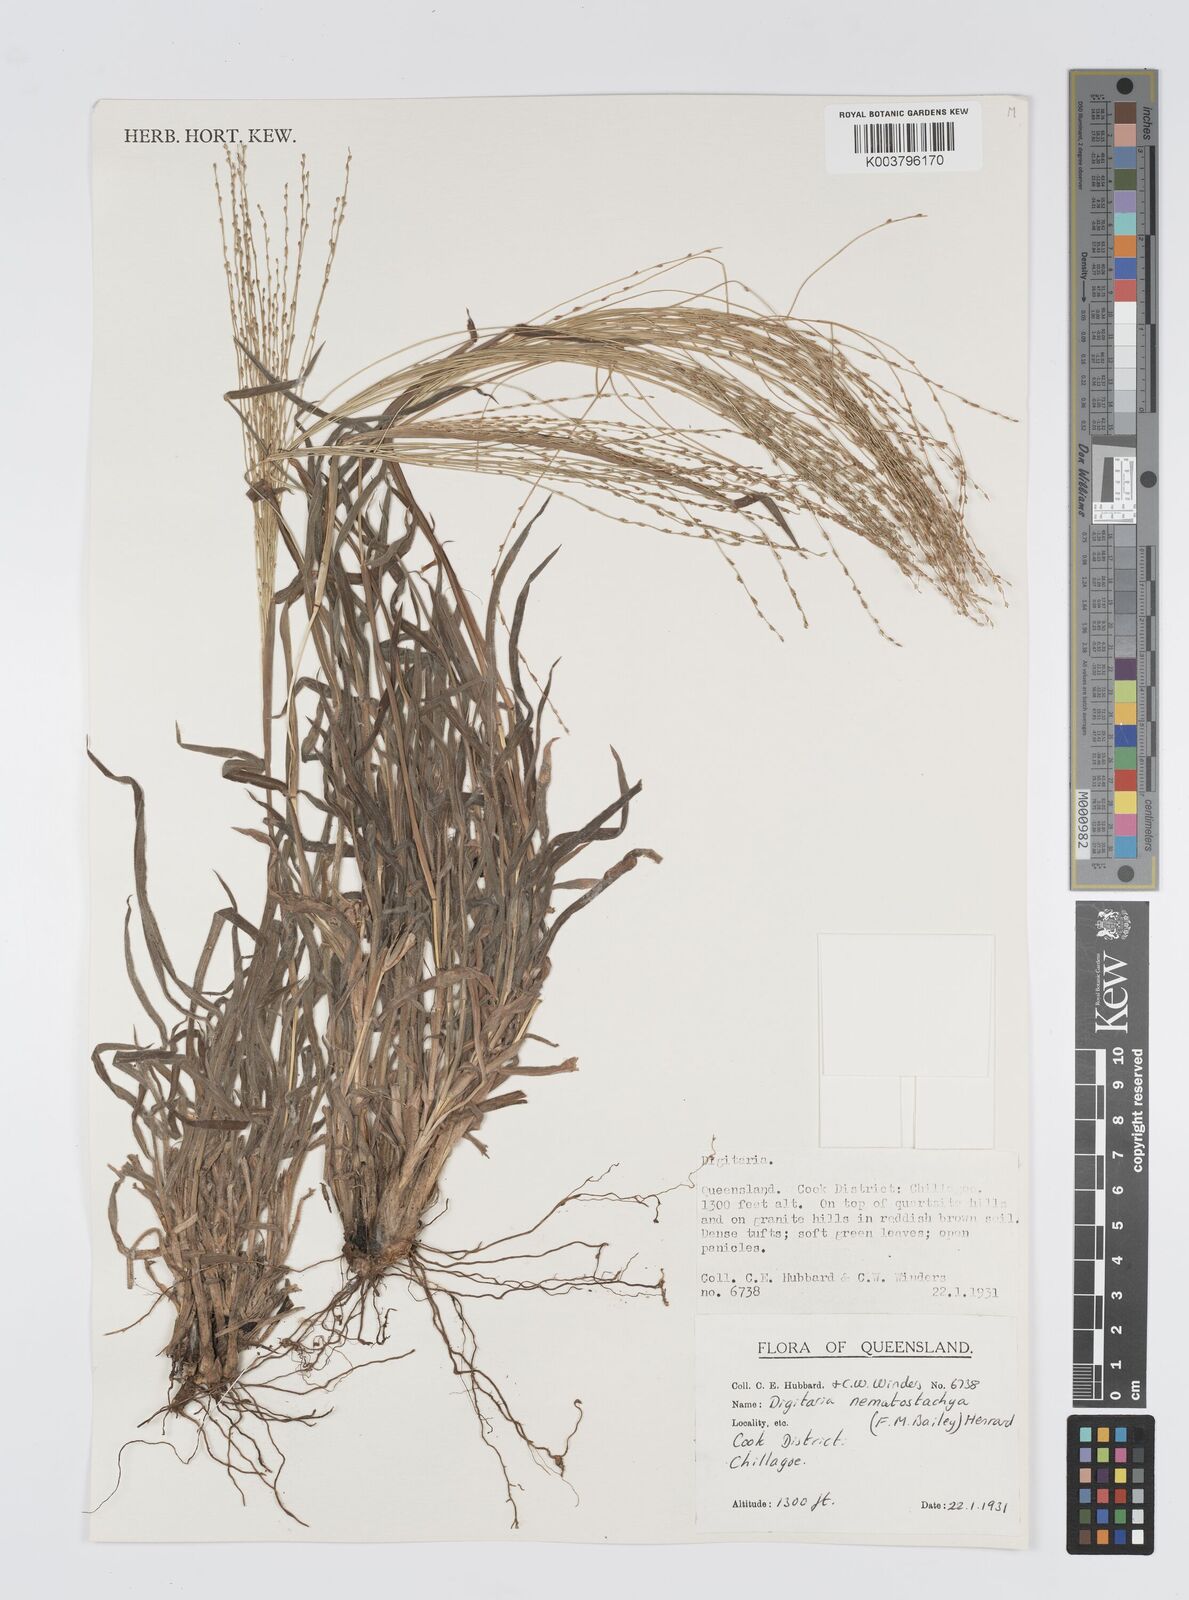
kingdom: Plantae
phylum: Tracheophyta
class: Liliopsida
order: Poales
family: Poaceae
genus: Digitaria
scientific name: Digitaria nematostachya
